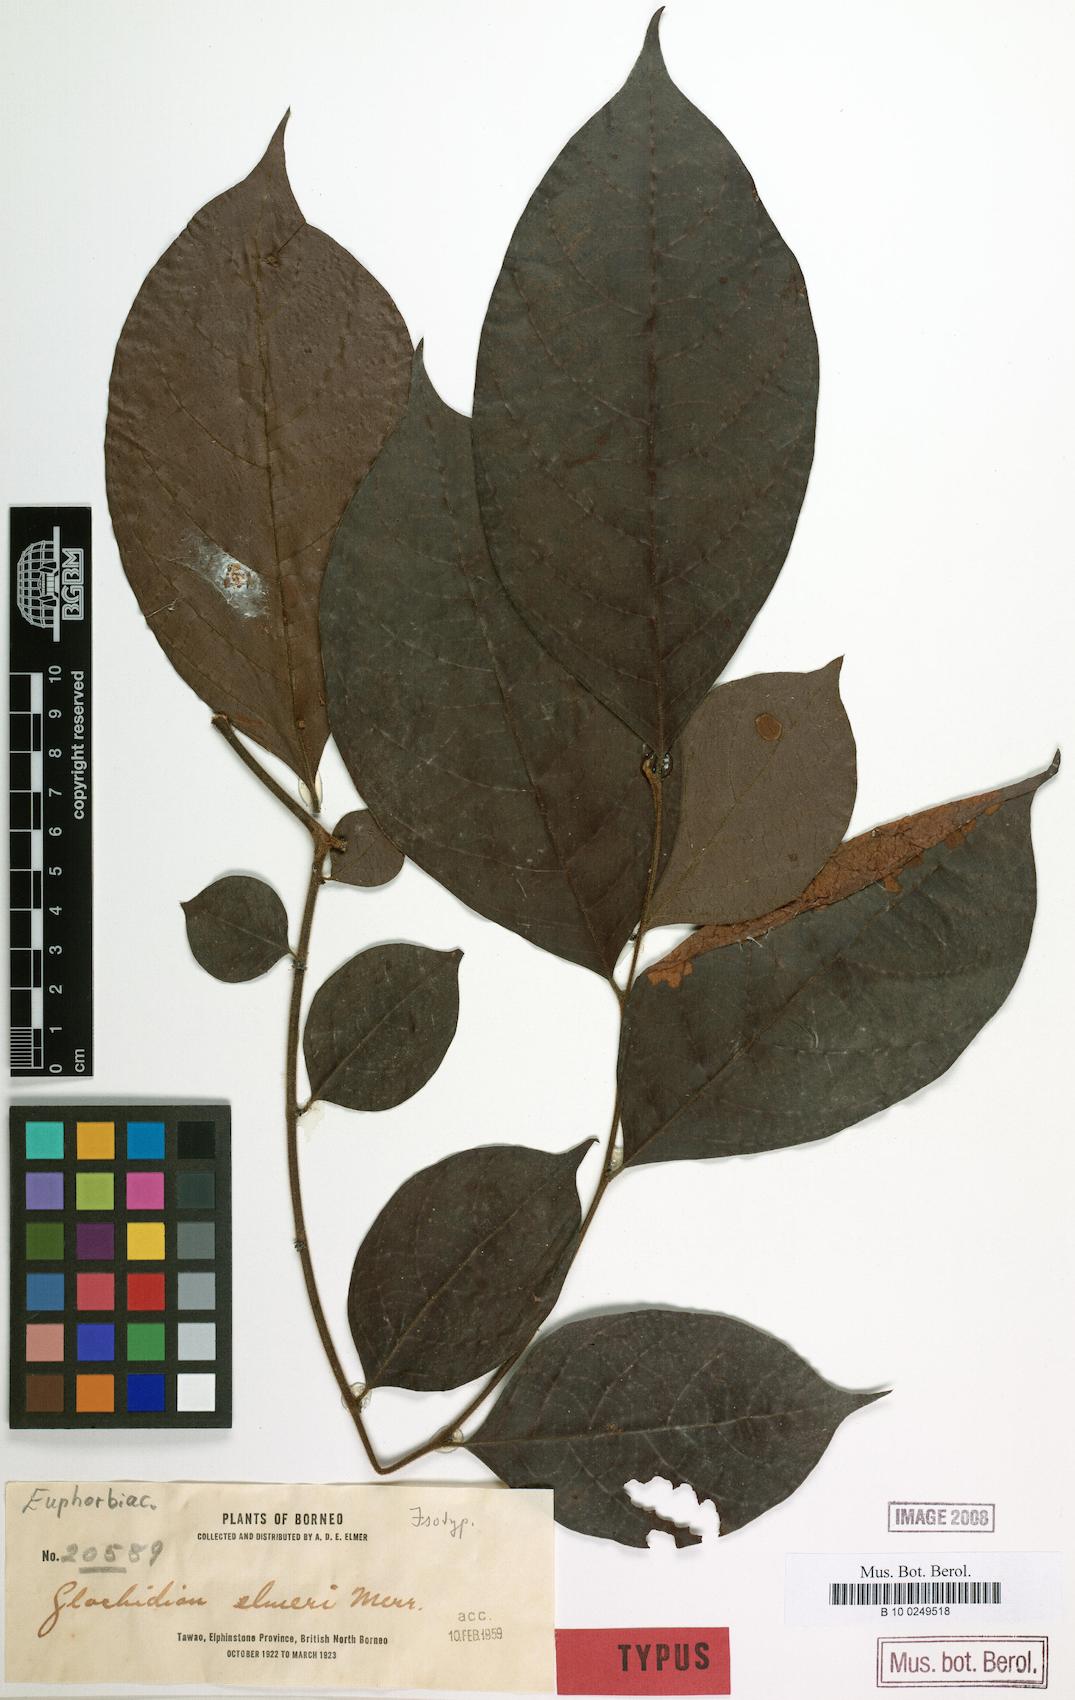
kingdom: Plantae
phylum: Tracheophyta
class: Magnoliopsida
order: Malpighiales
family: Phyllanthaceae
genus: Glochidion
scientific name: Glochidion elmeri
